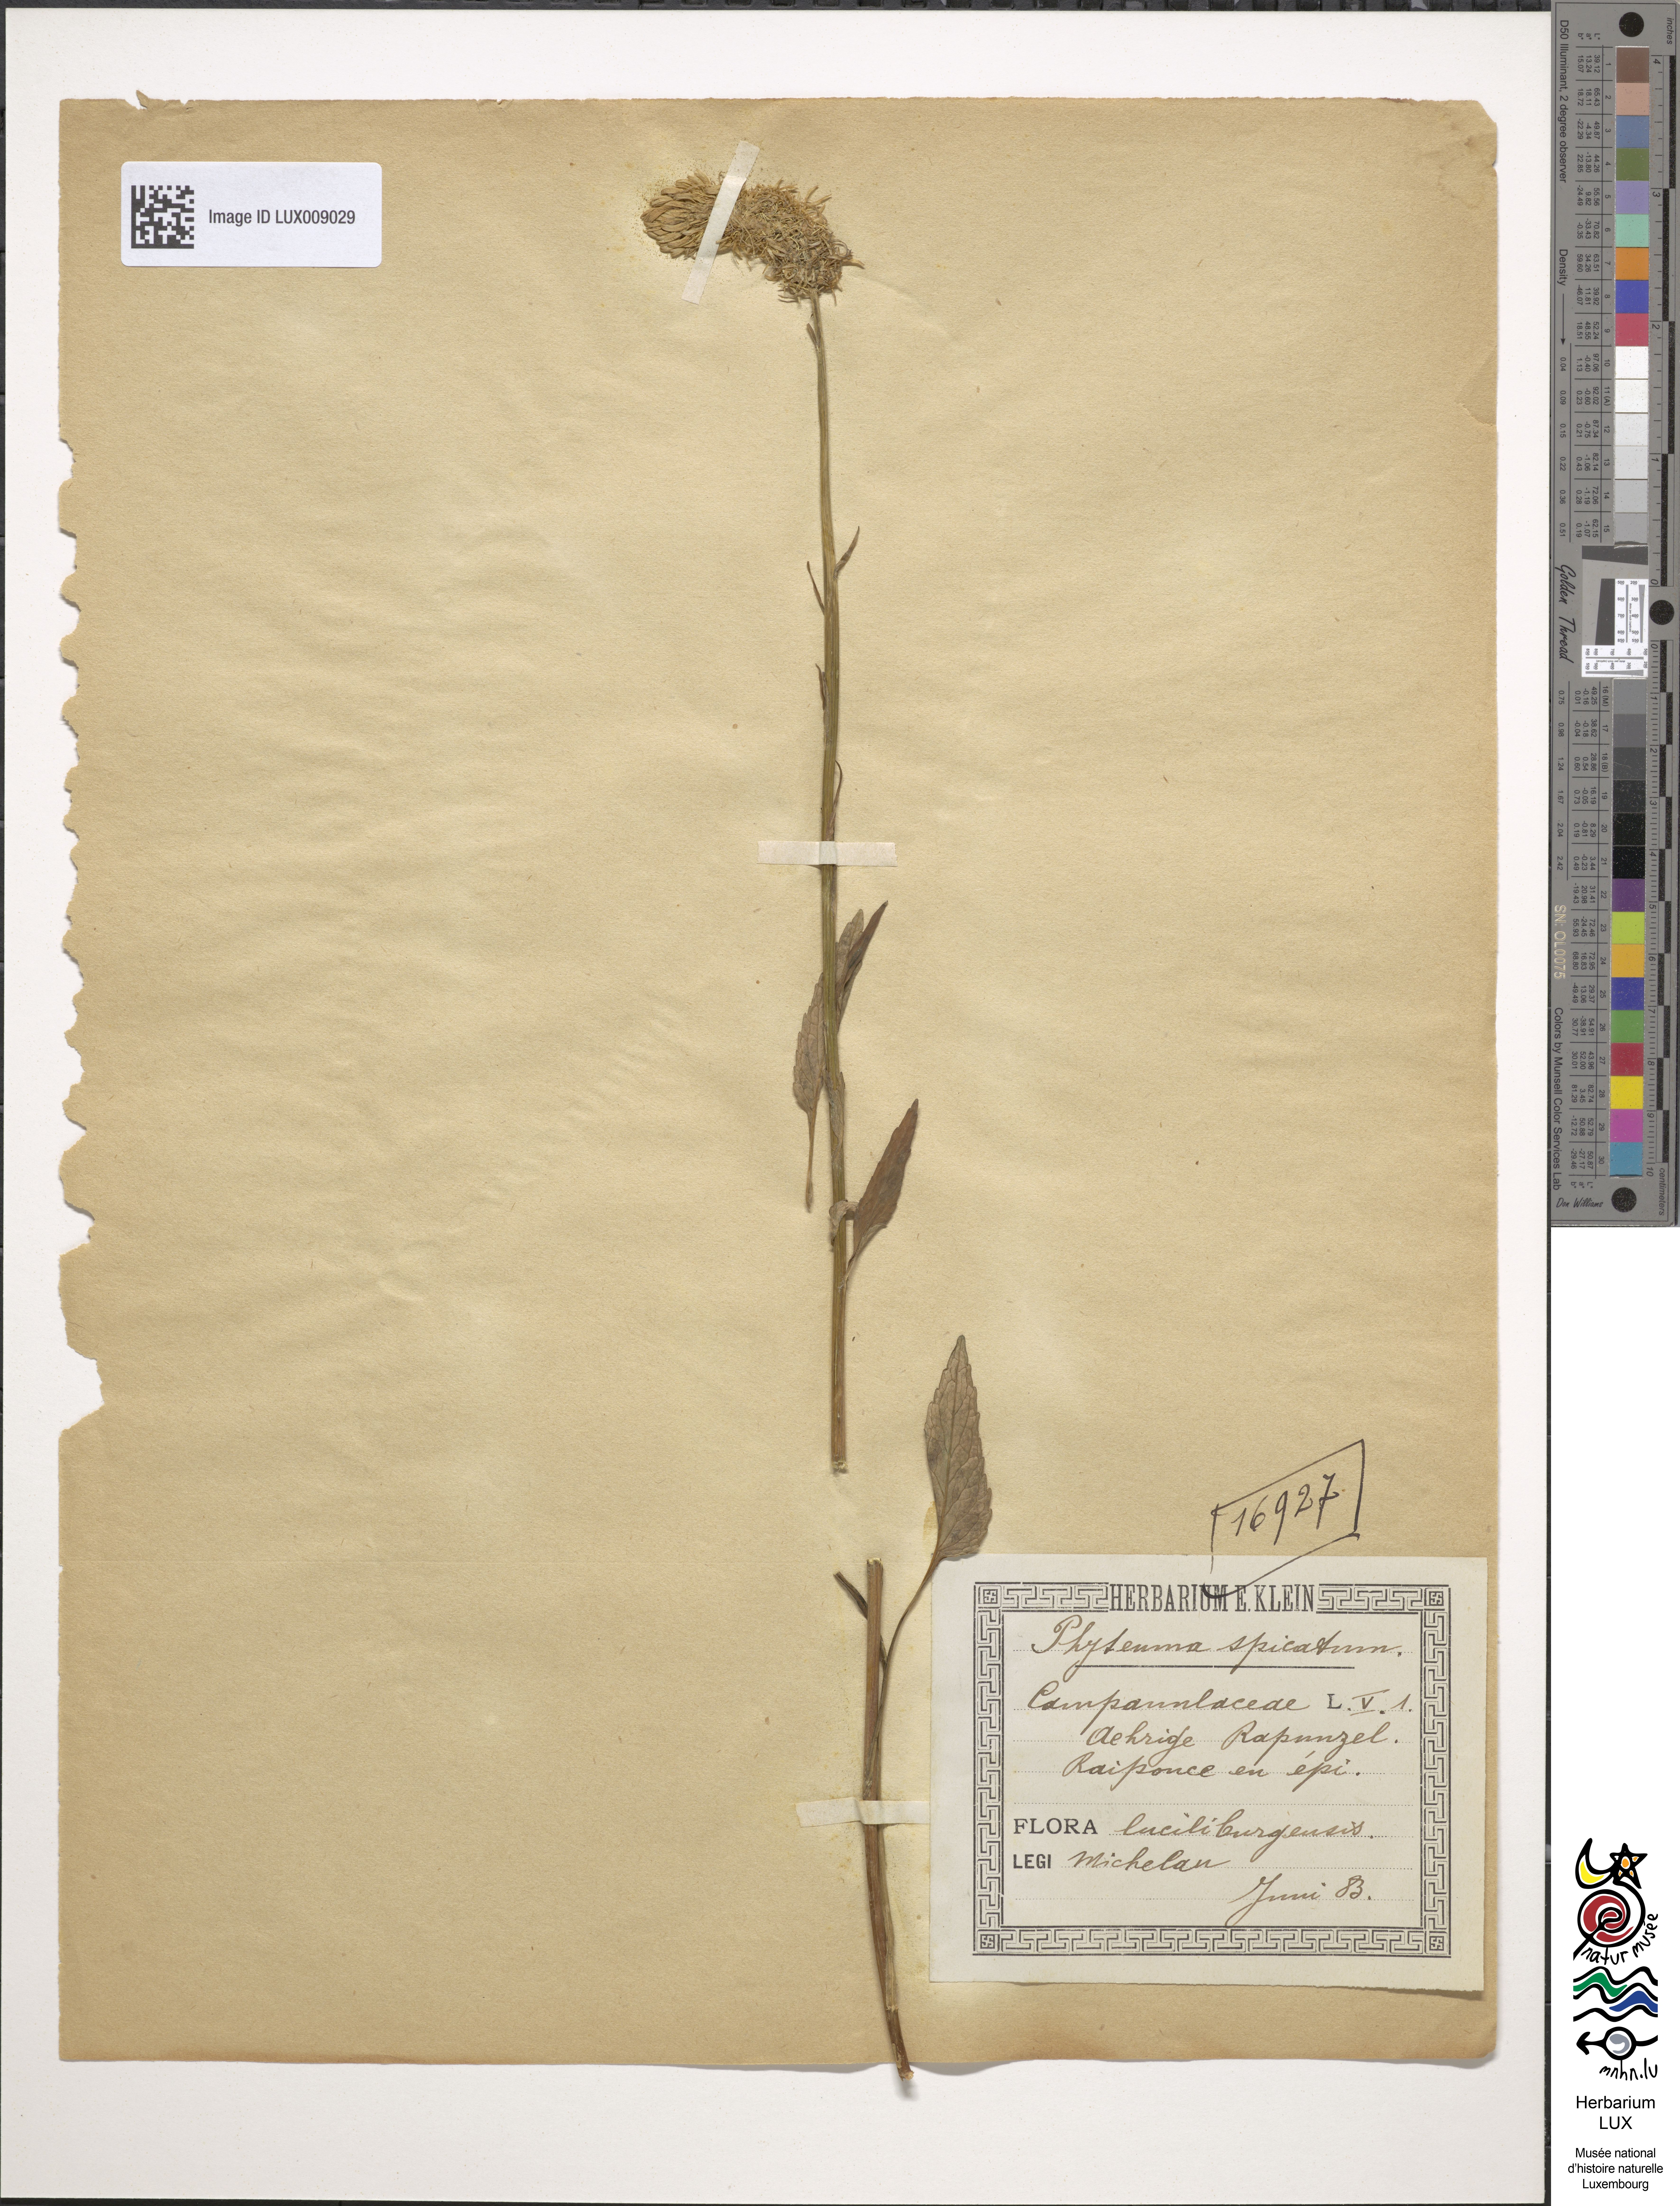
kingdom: Plantae
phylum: Tracheophyta
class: Magnoliopsida
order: Asterales
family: Campanulaceae
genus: Phyteuma
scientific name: Phyteuma spicatum
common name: Spiked rampion
